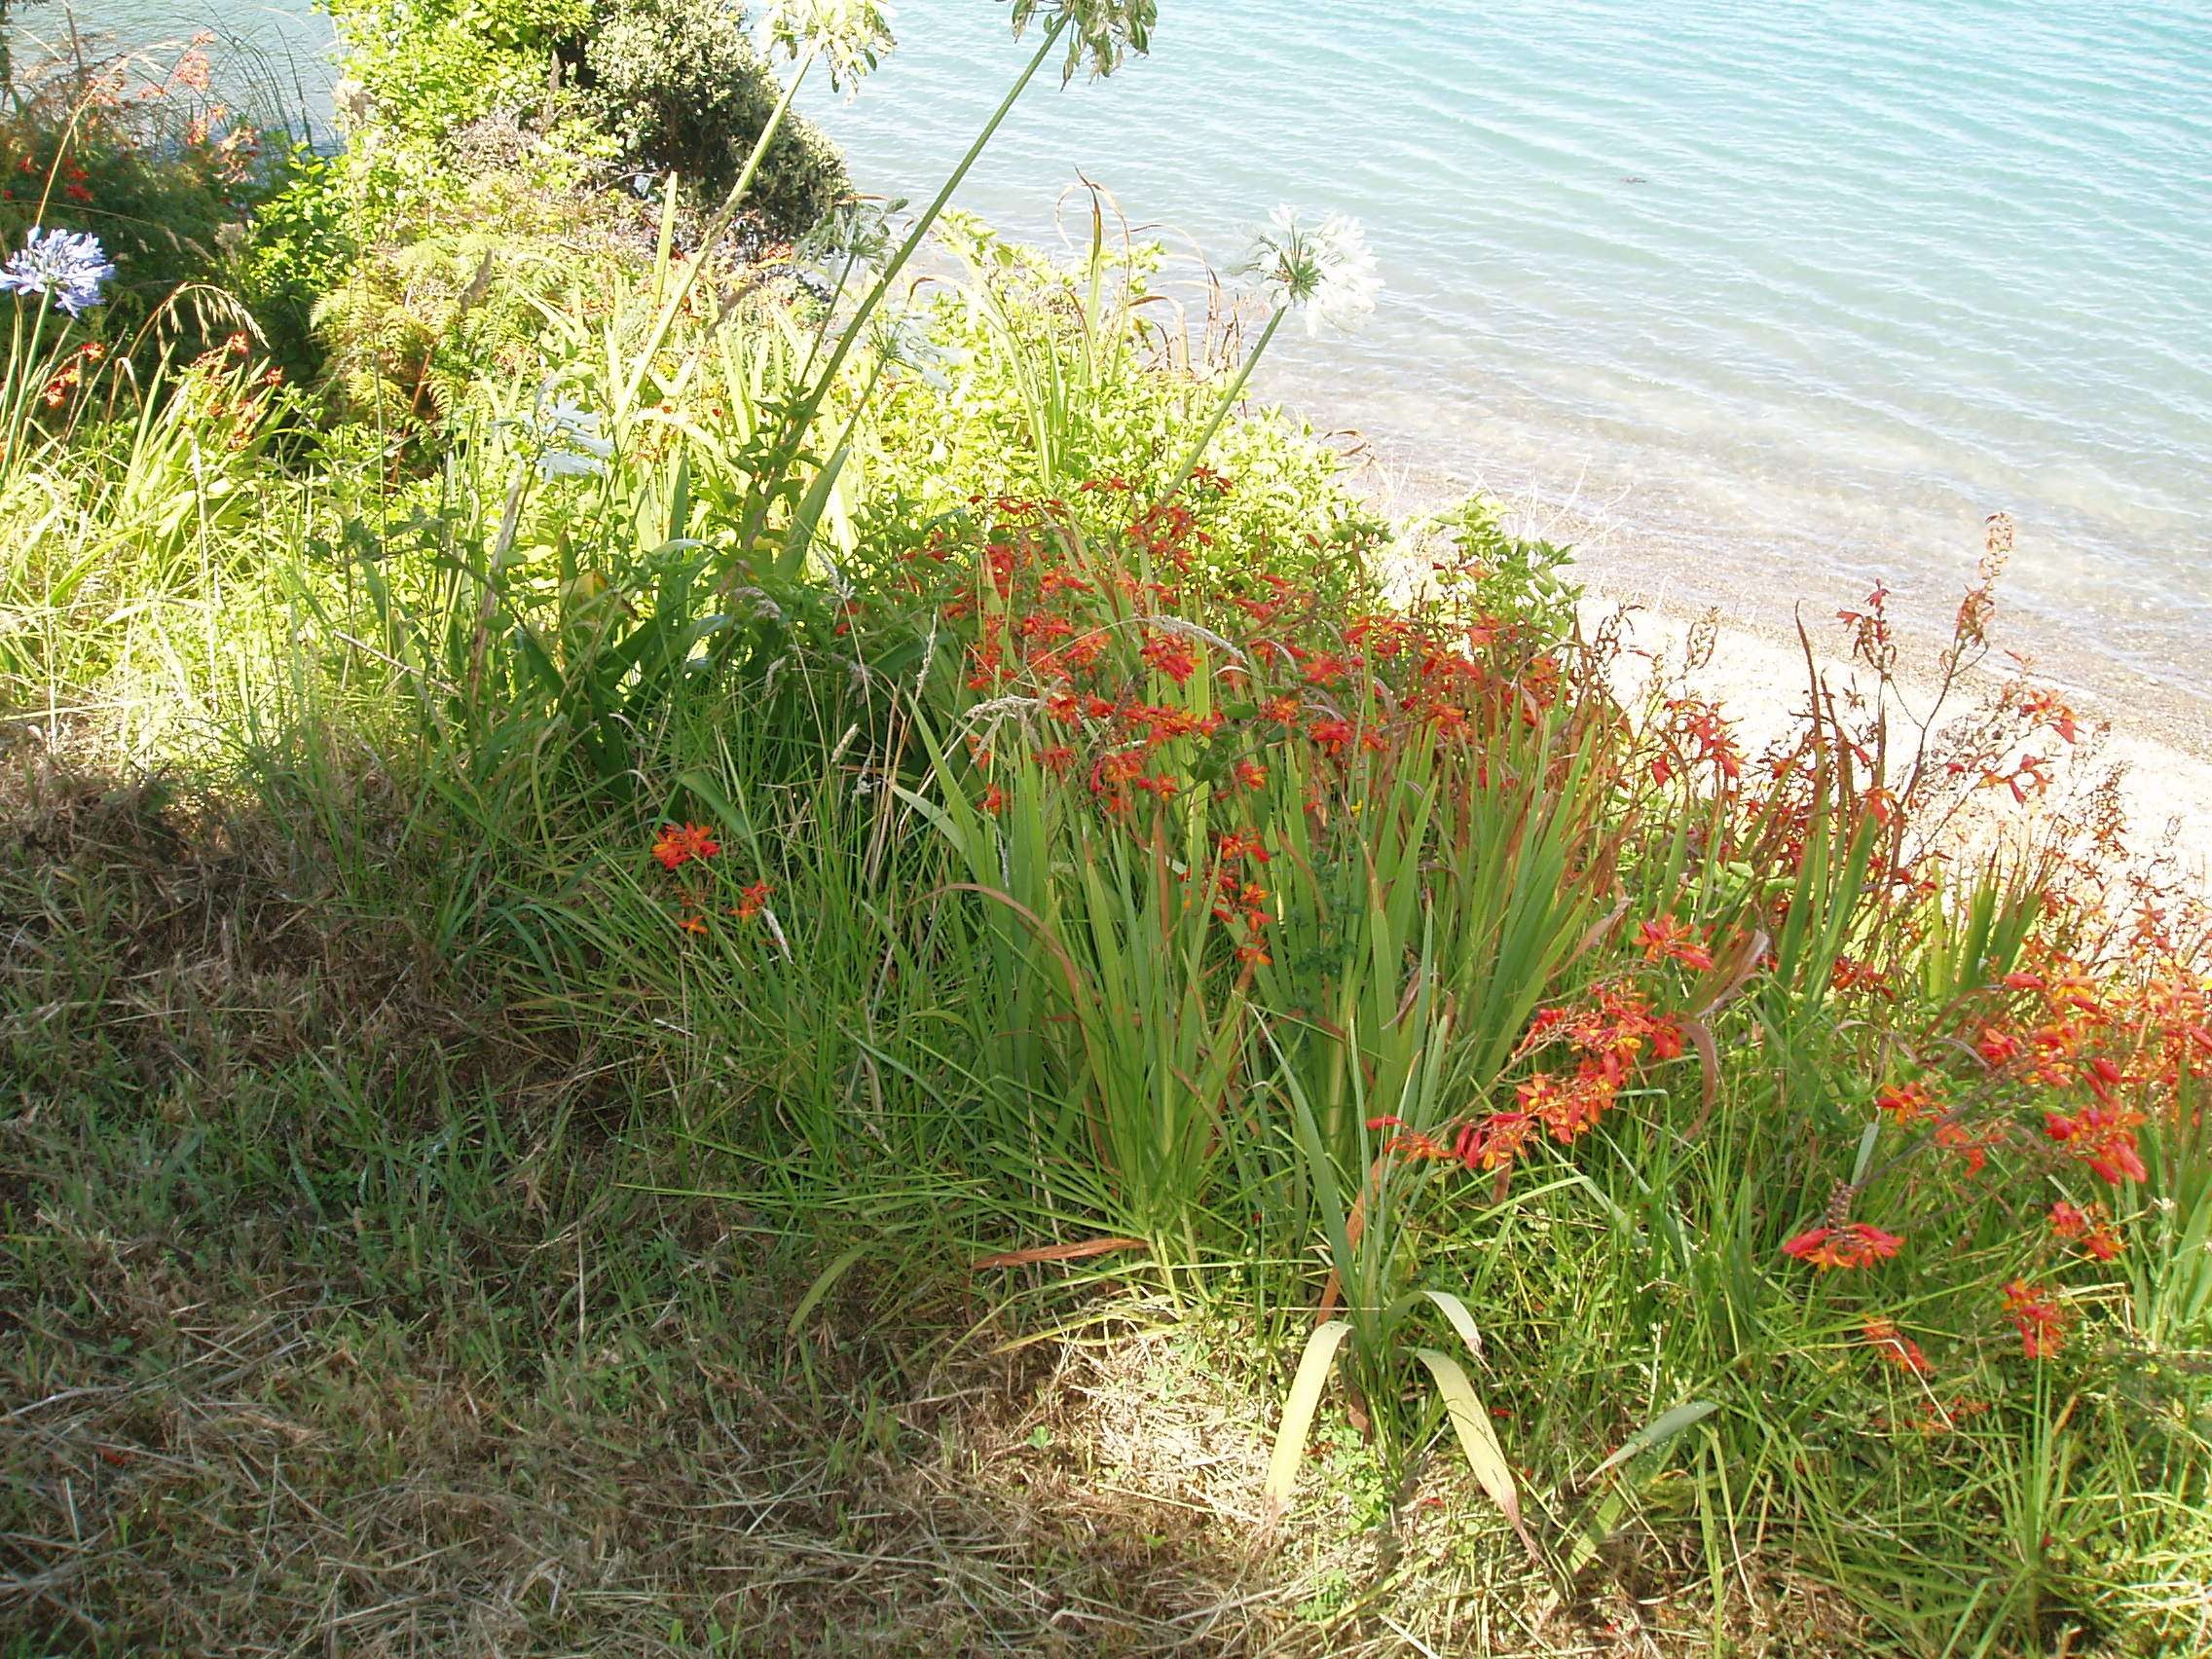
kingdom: Plantae
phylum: Tracheophyta
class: Liliopsida
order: Asparagales
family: Iridaceae
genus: Crocosmia
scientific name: Crocosmia crocosmiiflora
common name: Montbretia
